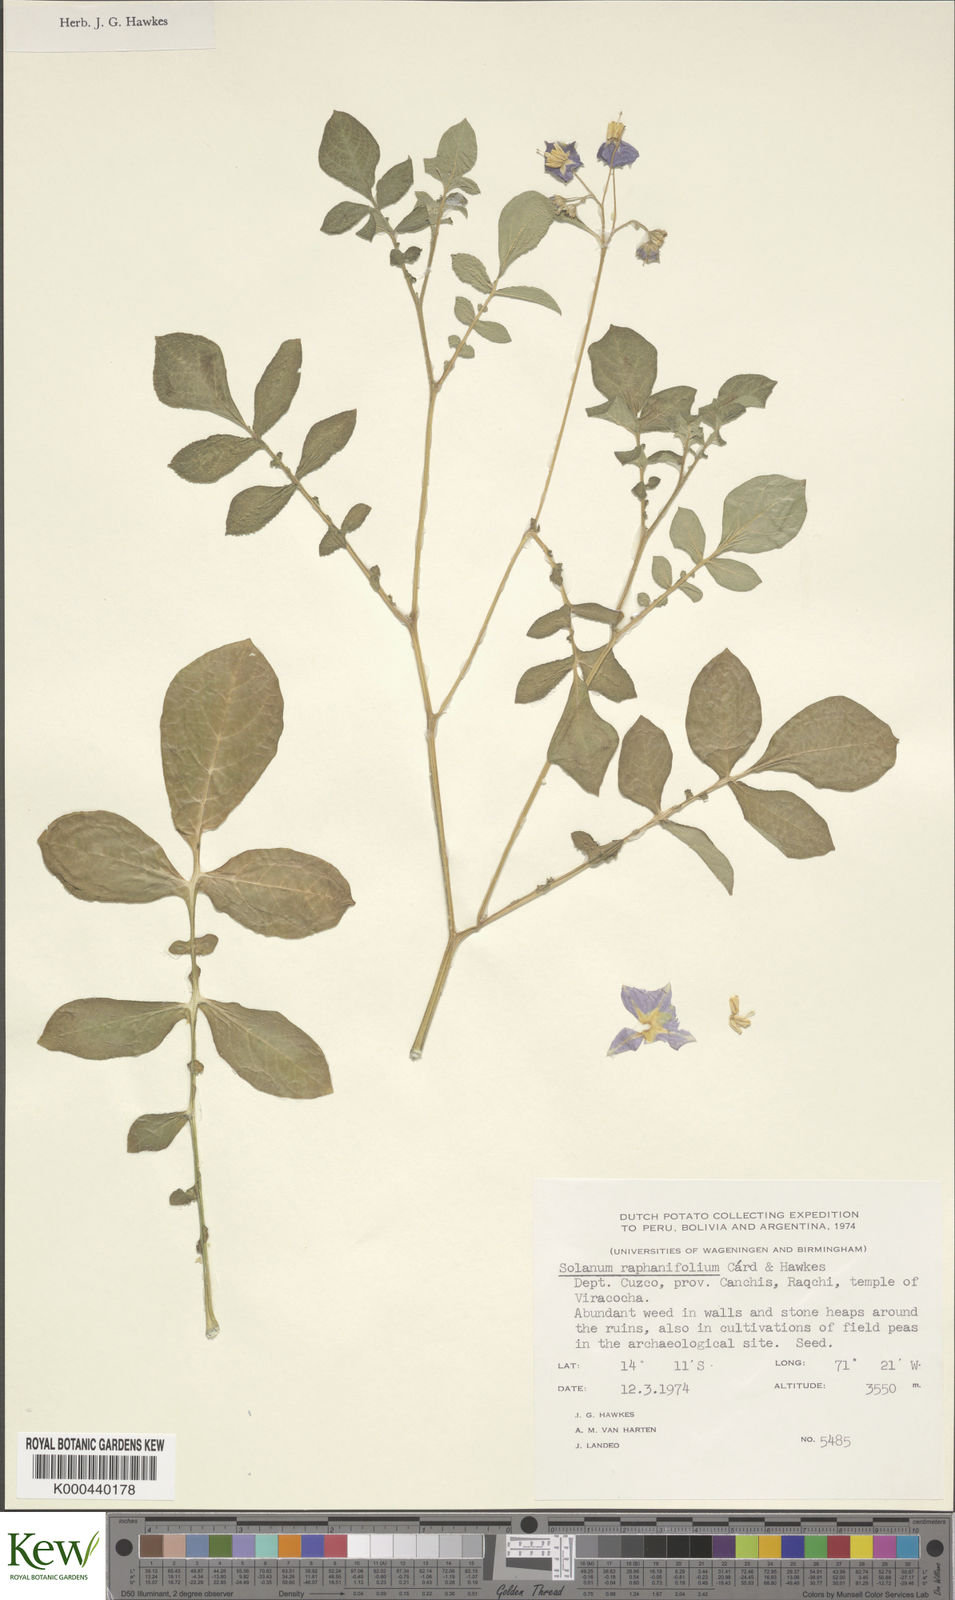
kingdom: Plantae
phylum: Tracheophyta
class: Magnoliopsida
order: Solanales
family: Solanaceae
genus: Solanum
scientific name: Solanum raphanifolium
